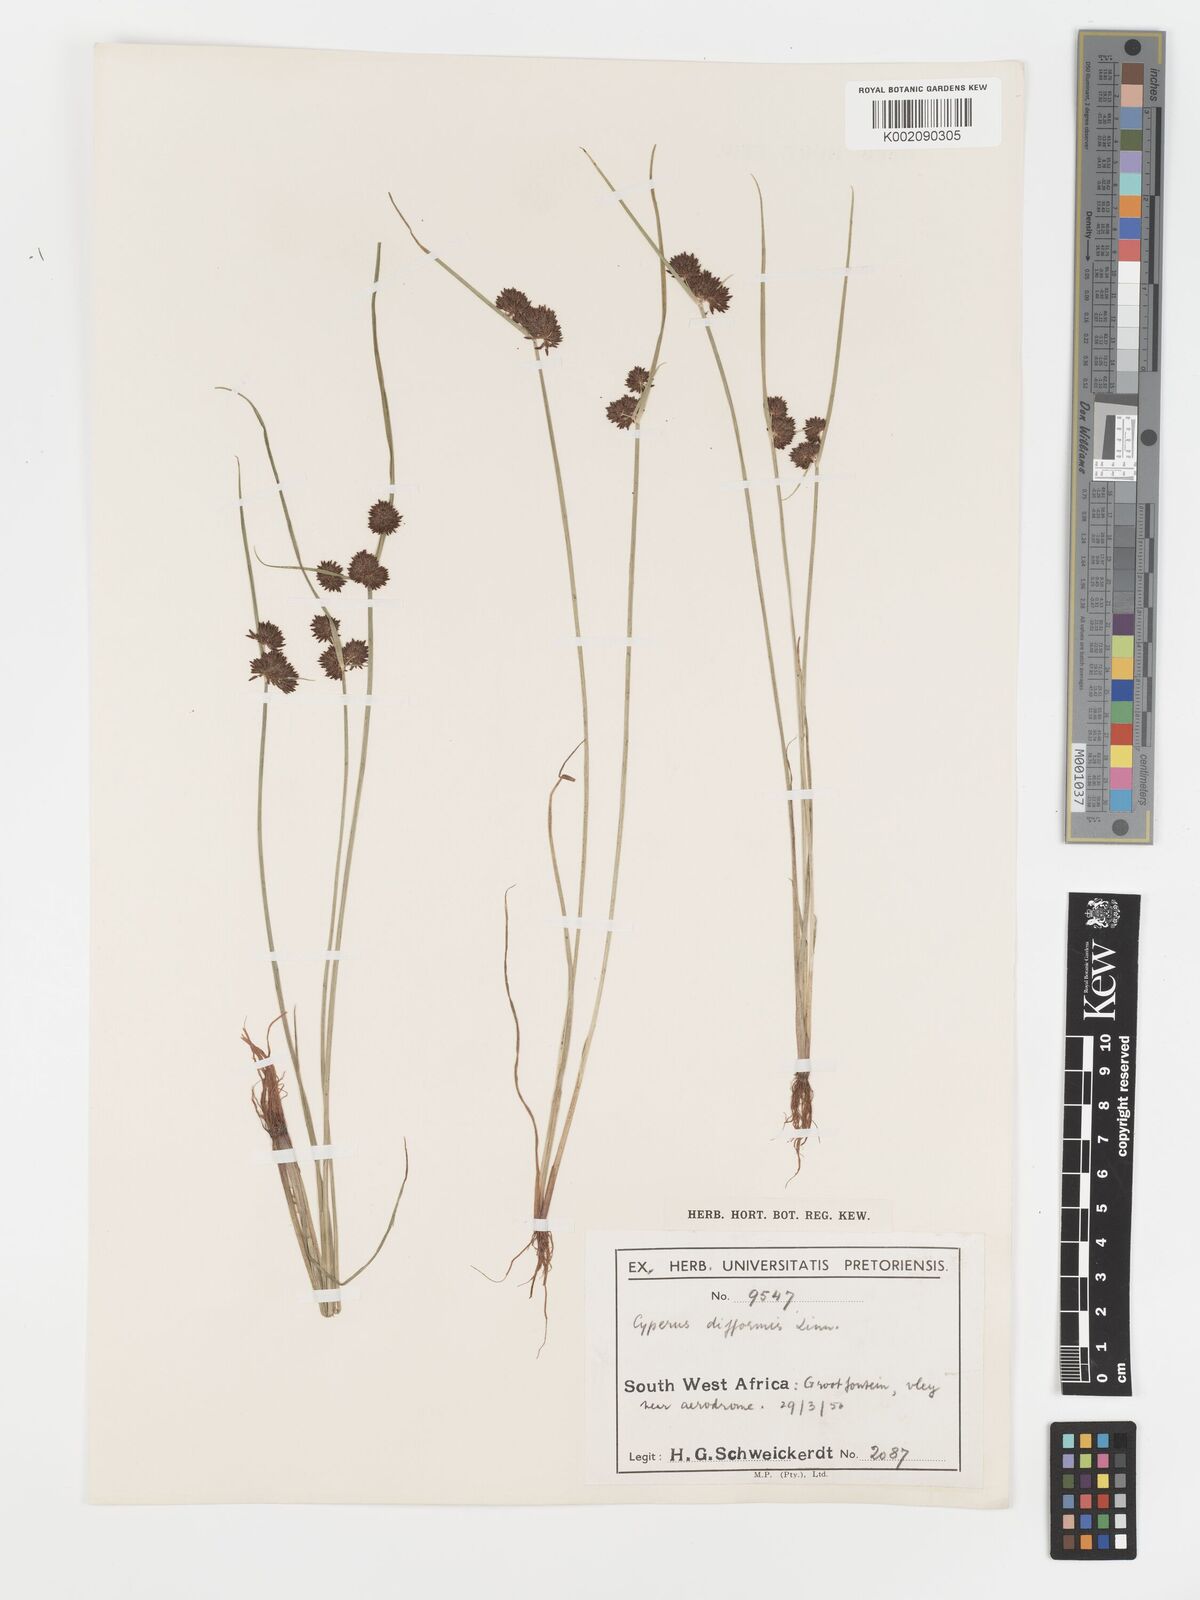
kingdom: Plantae
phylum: Tracheophyta
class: Liliopsida
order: Poales
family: Cyperaceae
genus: Cyperus
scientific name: Cyperus difformis
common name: Variable flatsedge
